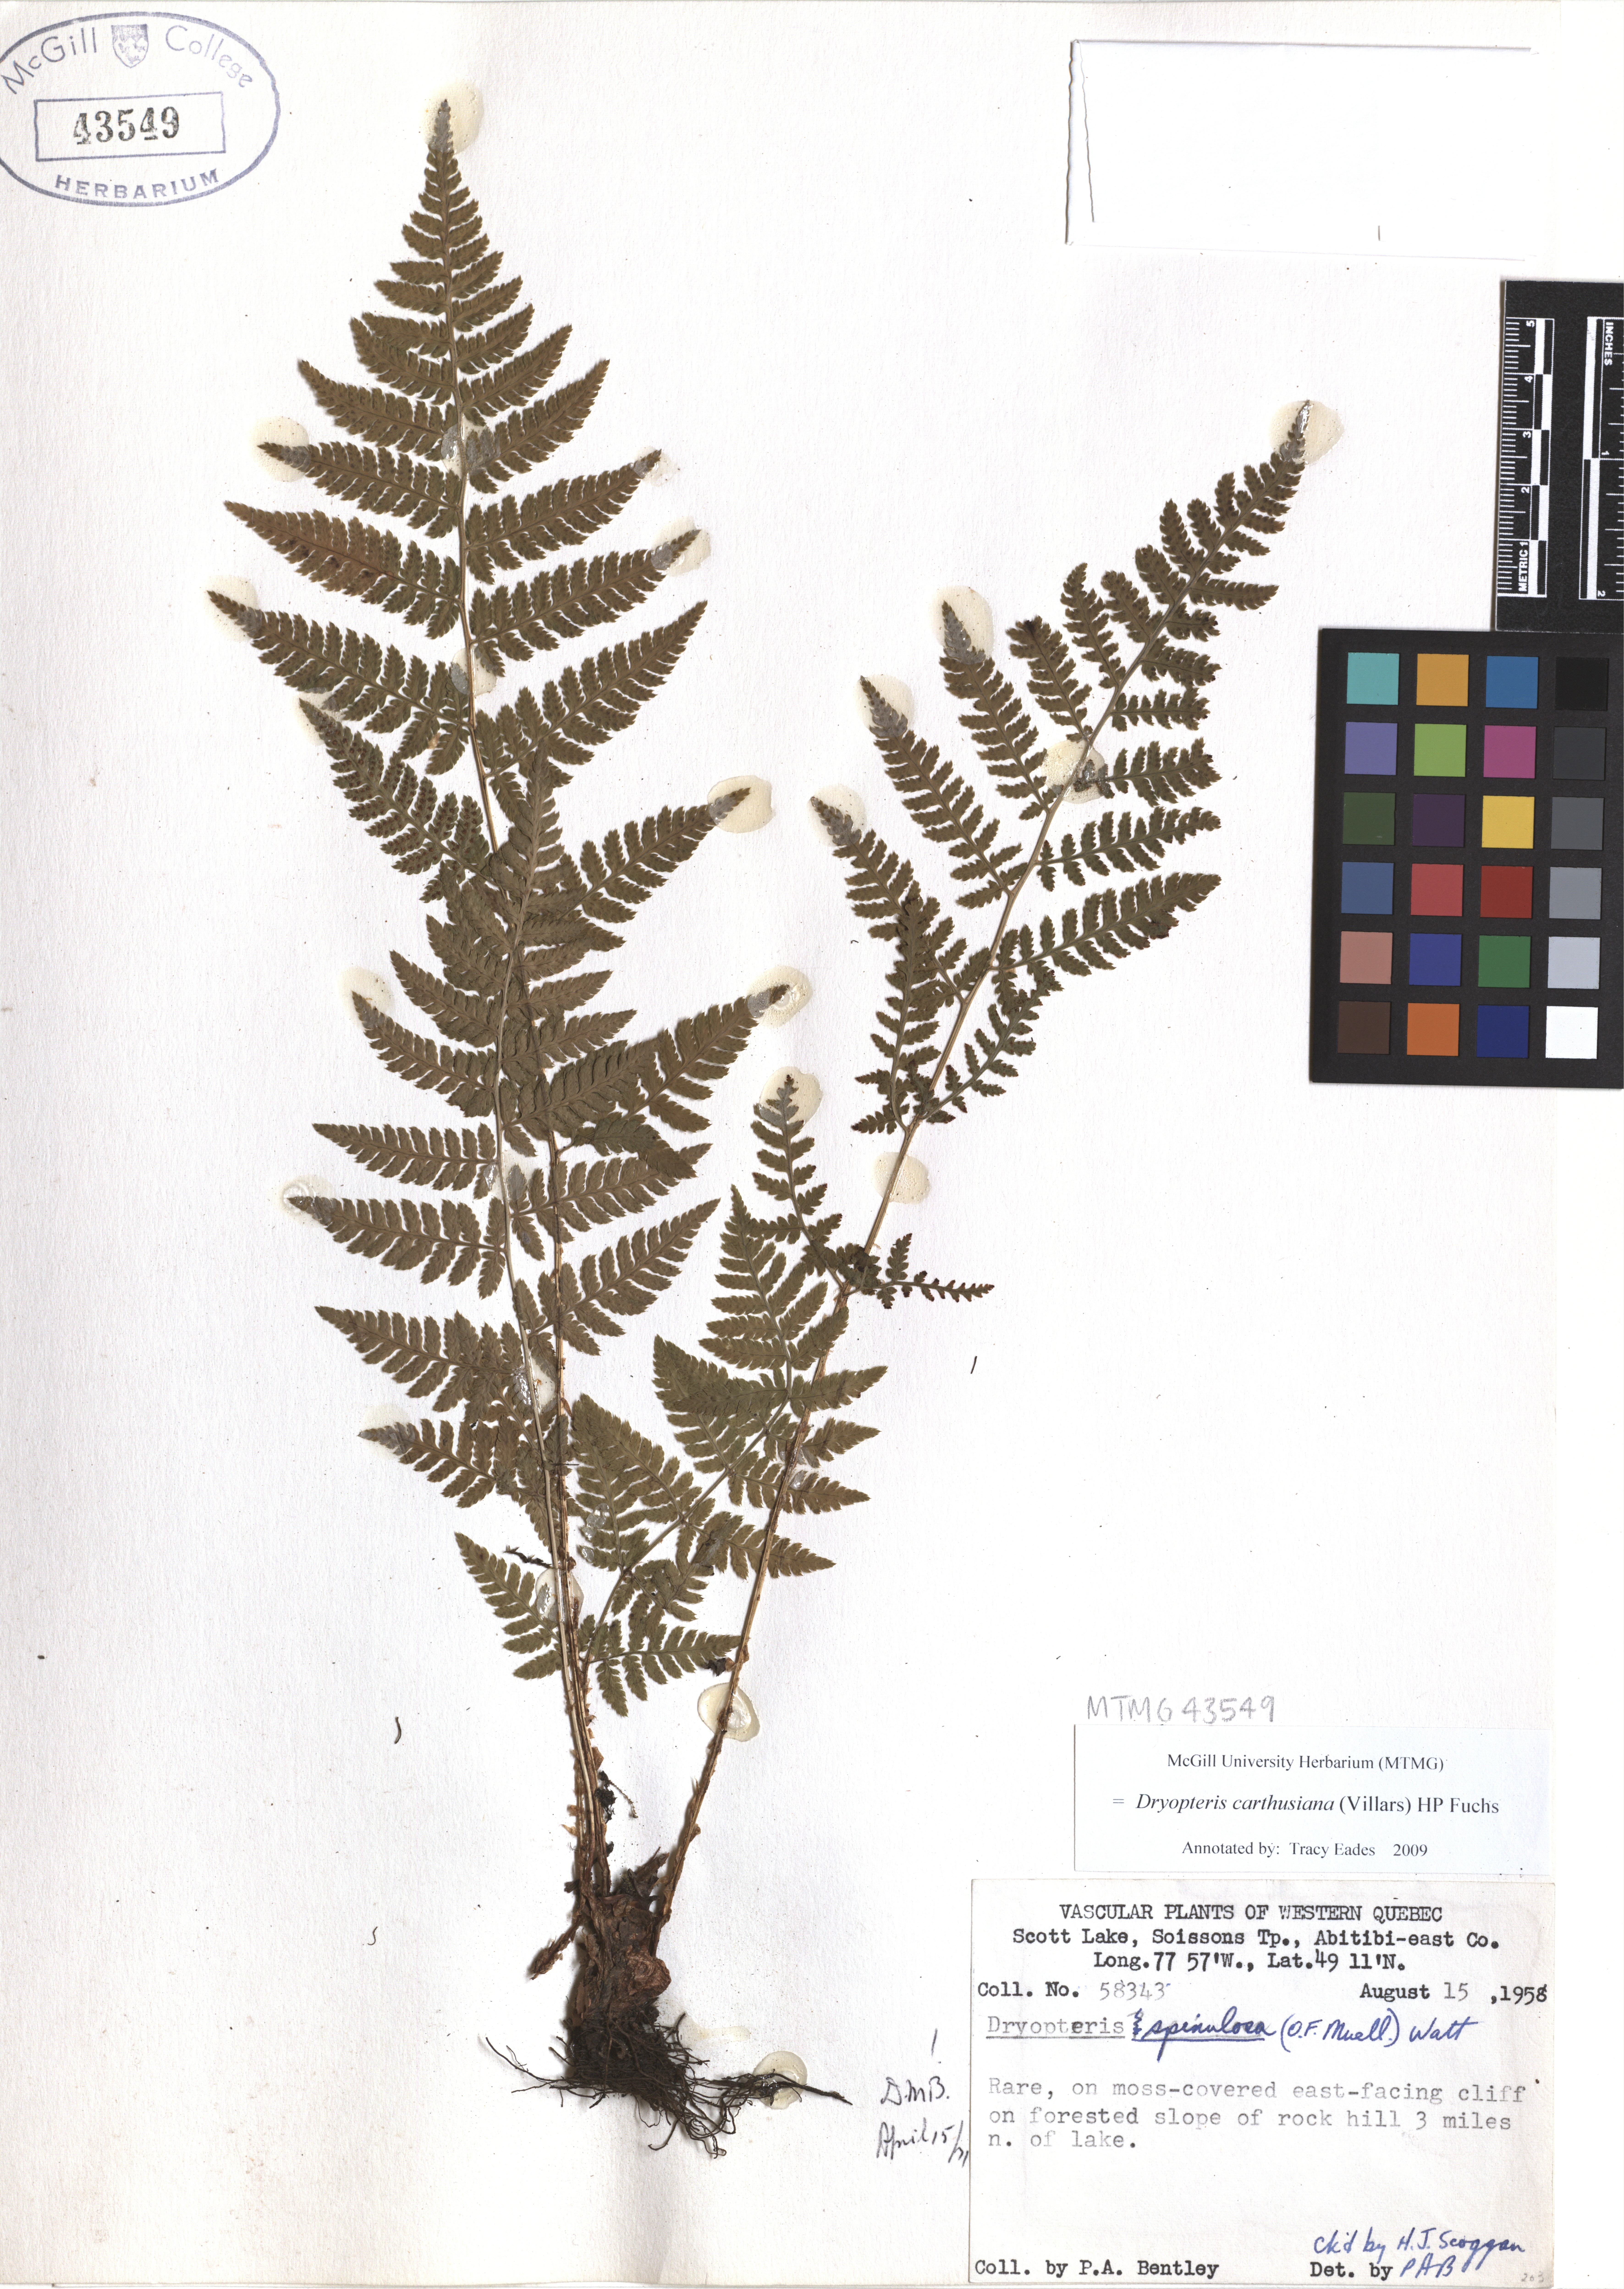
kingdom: Plantae
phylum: Tracheophyta
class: Polypodiopsida
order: Polypodiales
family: Dryopteridaceae
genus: Dryopteris
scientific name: Dryopteris carthusiana
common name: Narrow buckler-fern
